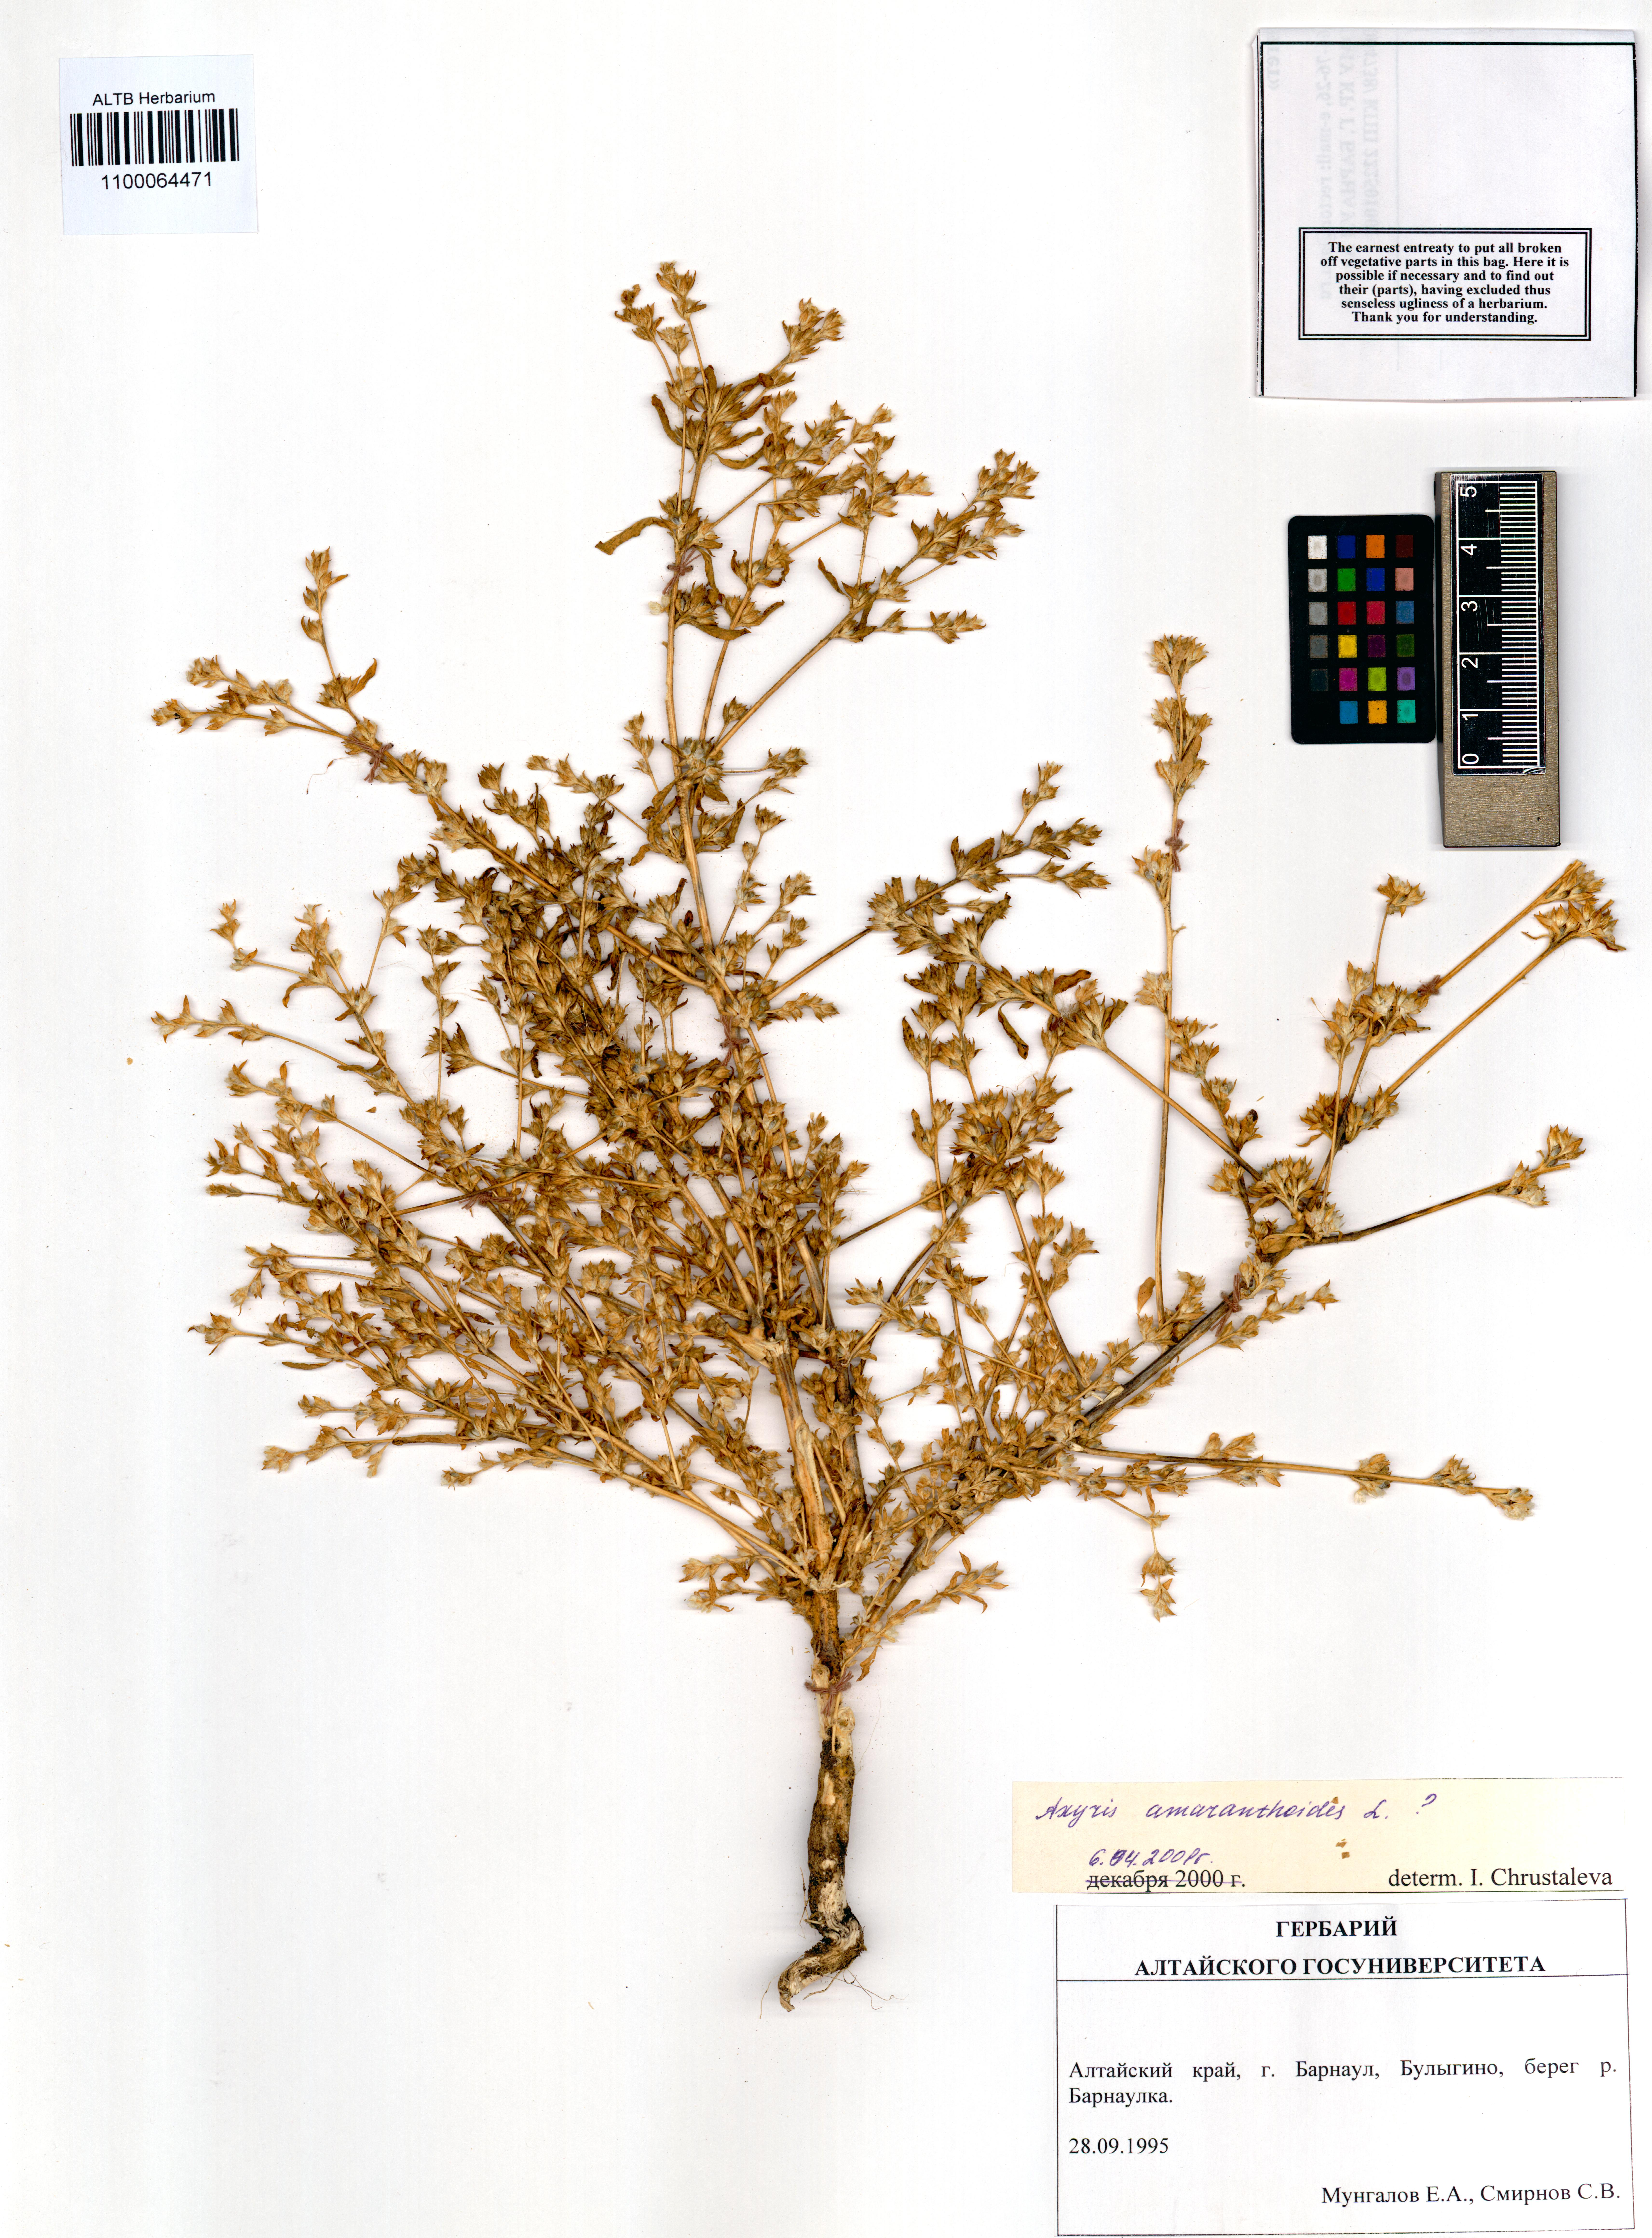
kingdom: Plantae
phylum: Tracheophyta
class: Magnoliopsida
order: Caryophyllales
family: Amaranthaceae
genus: Axyris
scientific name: Axyris amaranthoides
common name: Russian pigweed
